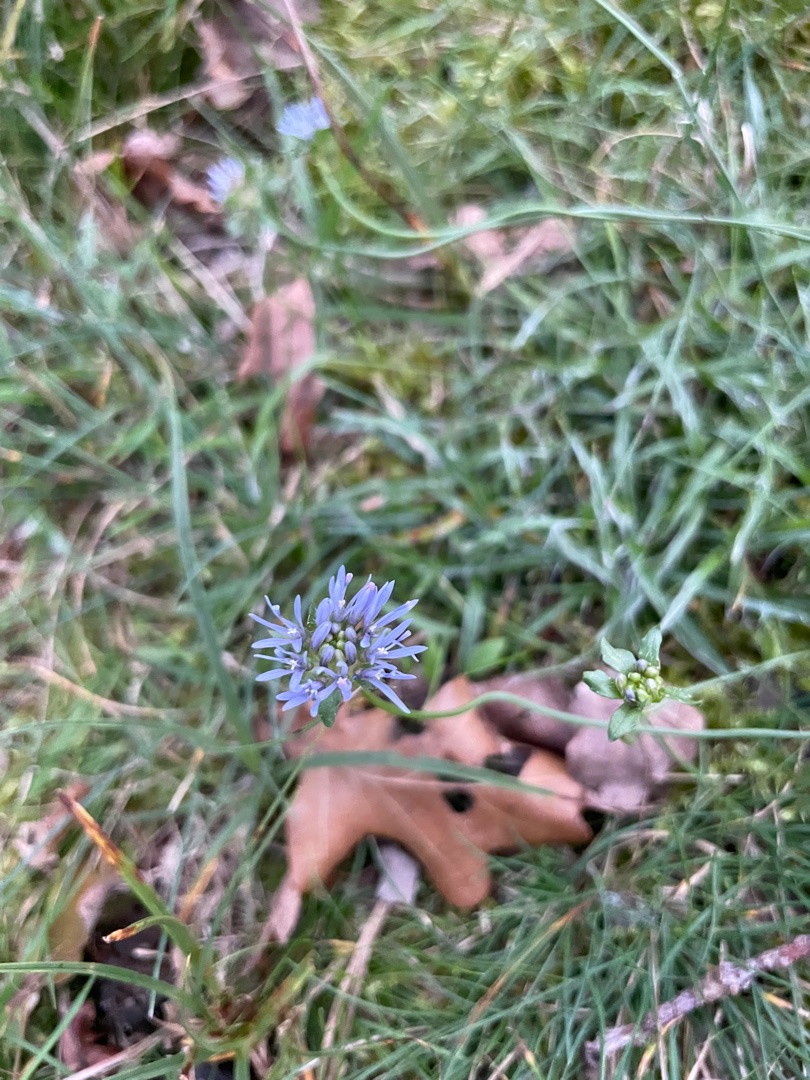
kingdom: Plantae
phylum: Tracheophyta
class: Magnoliopsida
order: Asterales
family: Campanulaceae
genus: Jasione
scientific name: Jasione montana
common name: Blåmunke
